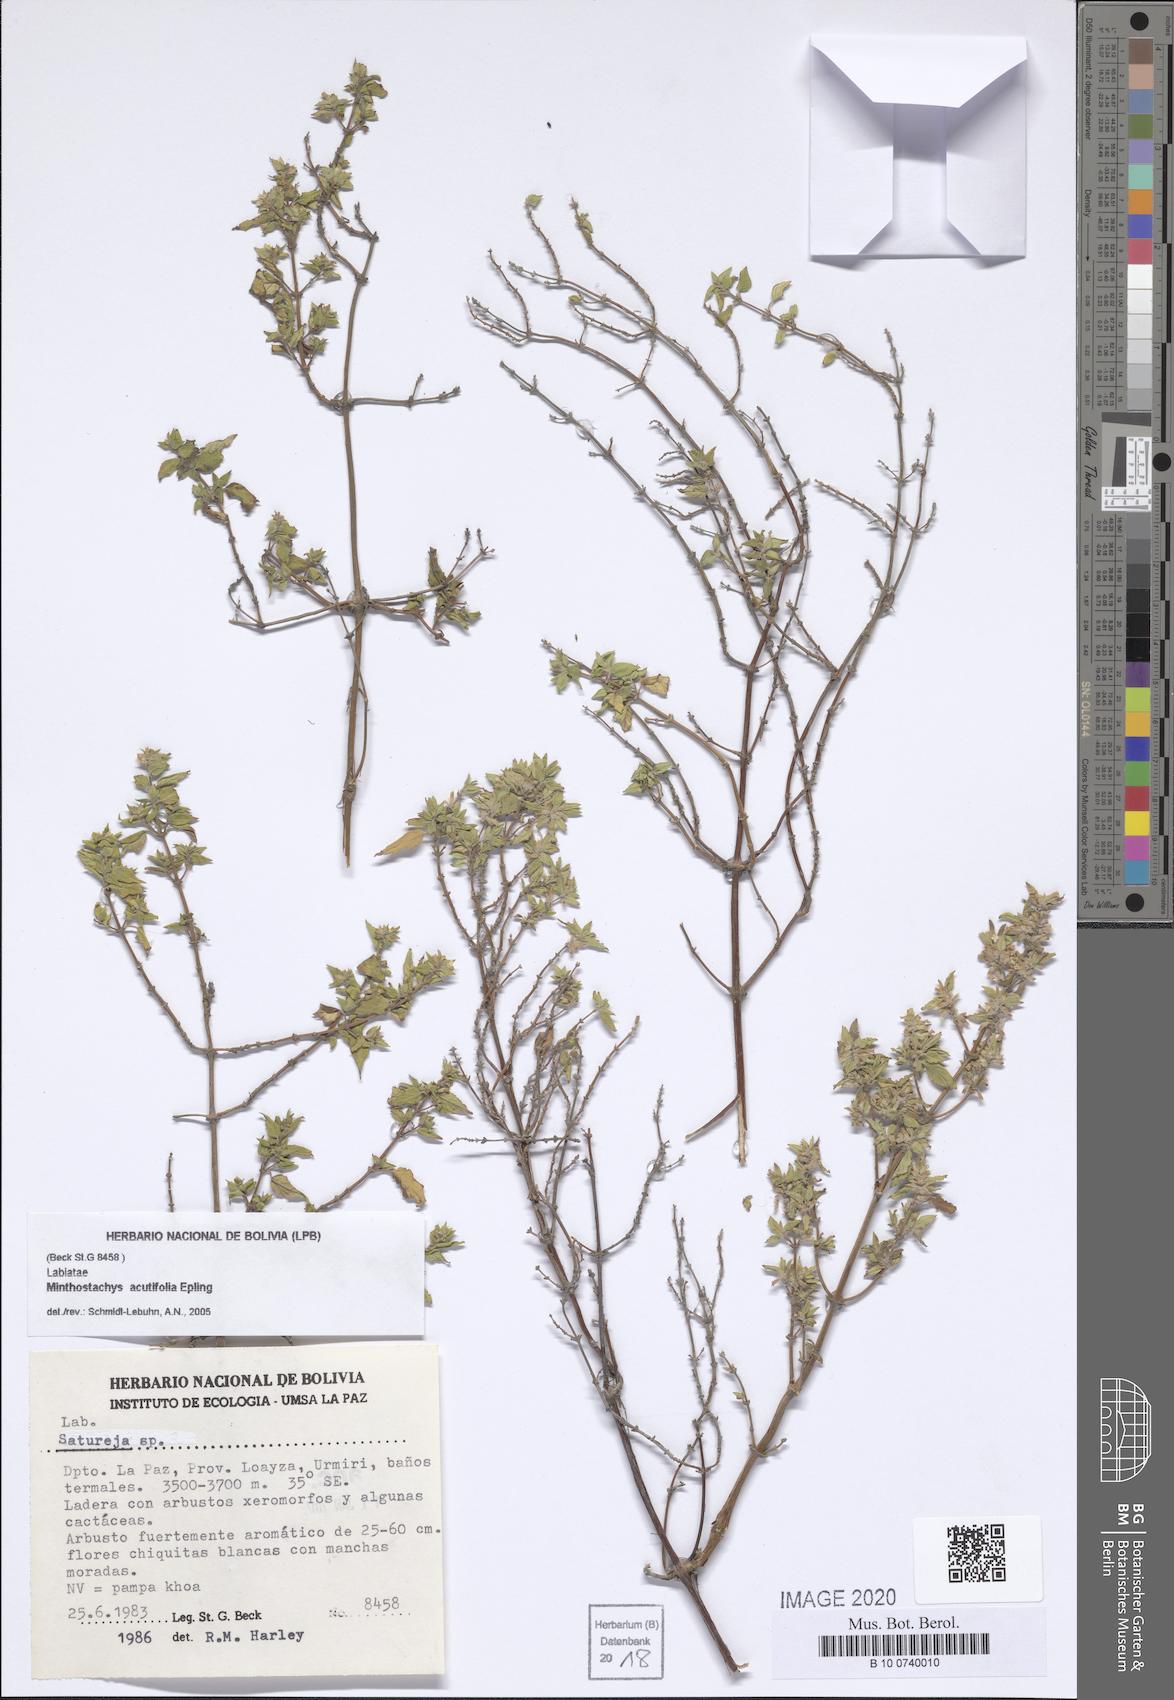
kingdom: Plantae
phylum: Tracheophyta
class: Magnoliopsida
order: Lamiales
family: Lamiaceae
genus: Minthostachys
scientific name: Minthostachys acutifolia
